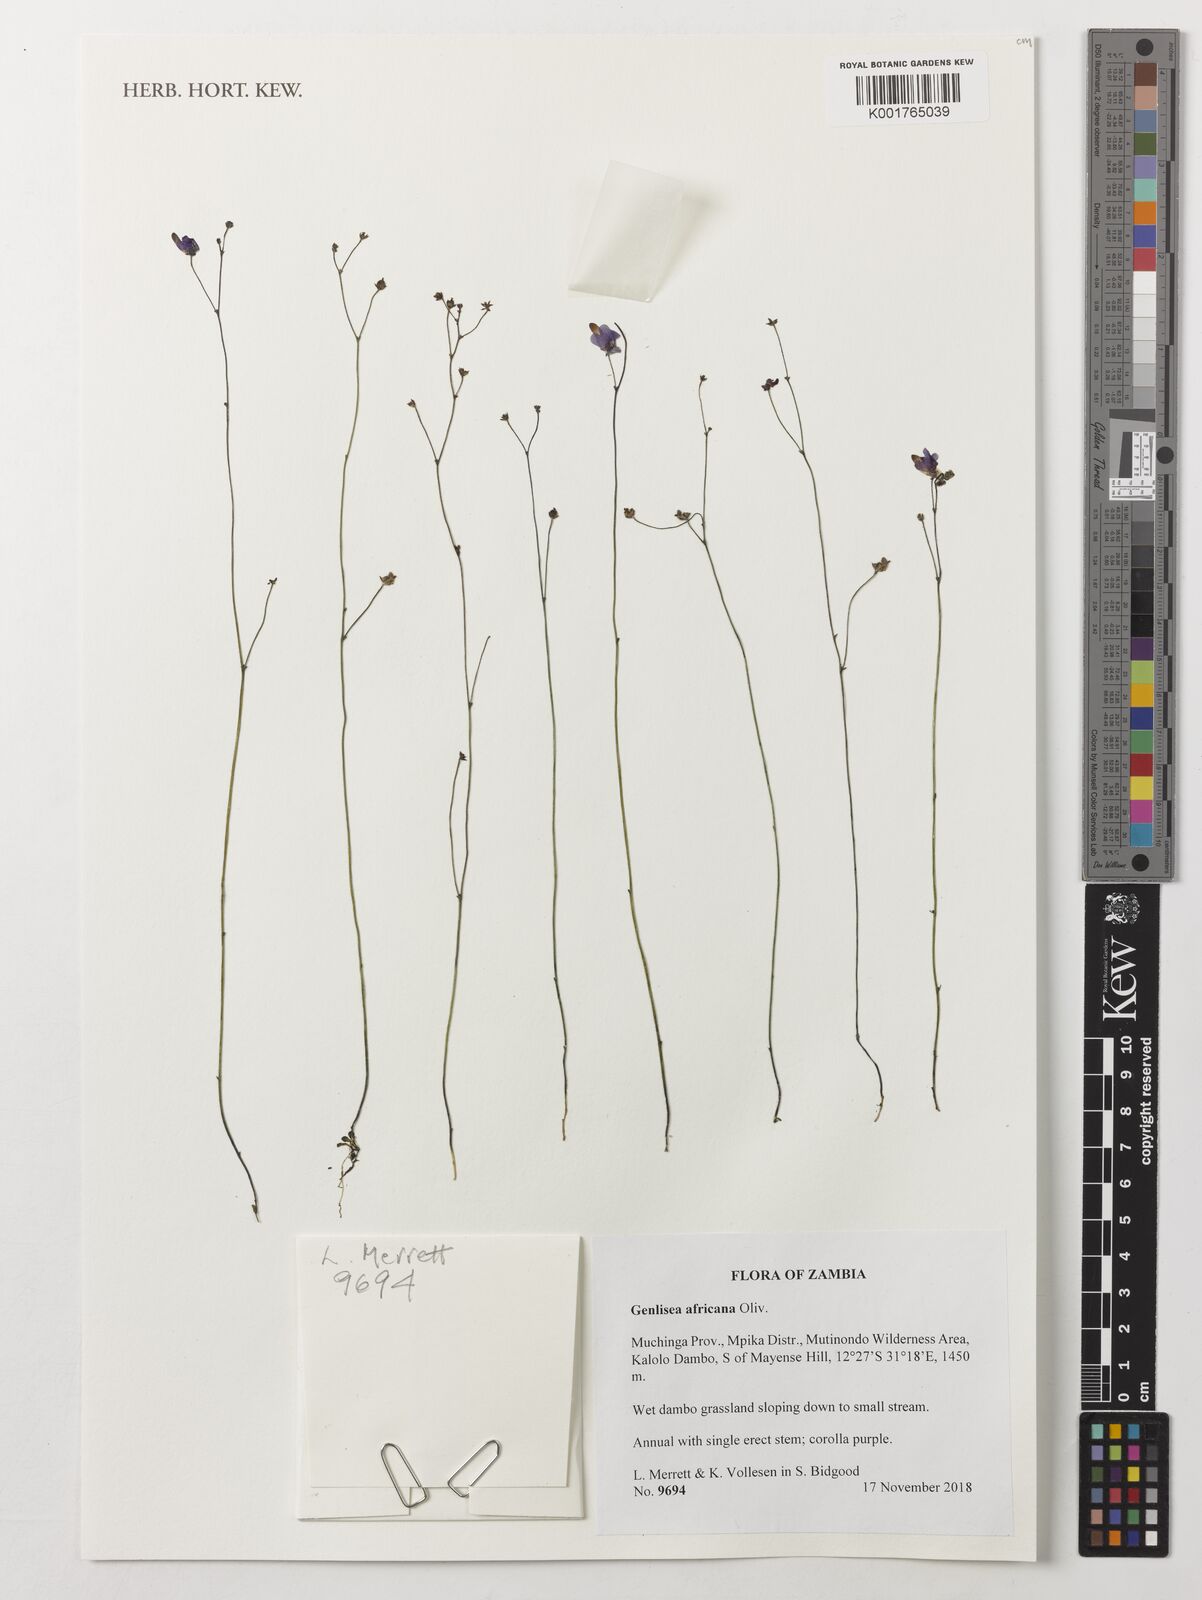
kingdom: Plantae
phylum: Tracheophyta
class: Magnoliopsida
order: Lamiales
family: Lentibulariaceae
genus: Genlisea
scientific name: Genlisea africana
